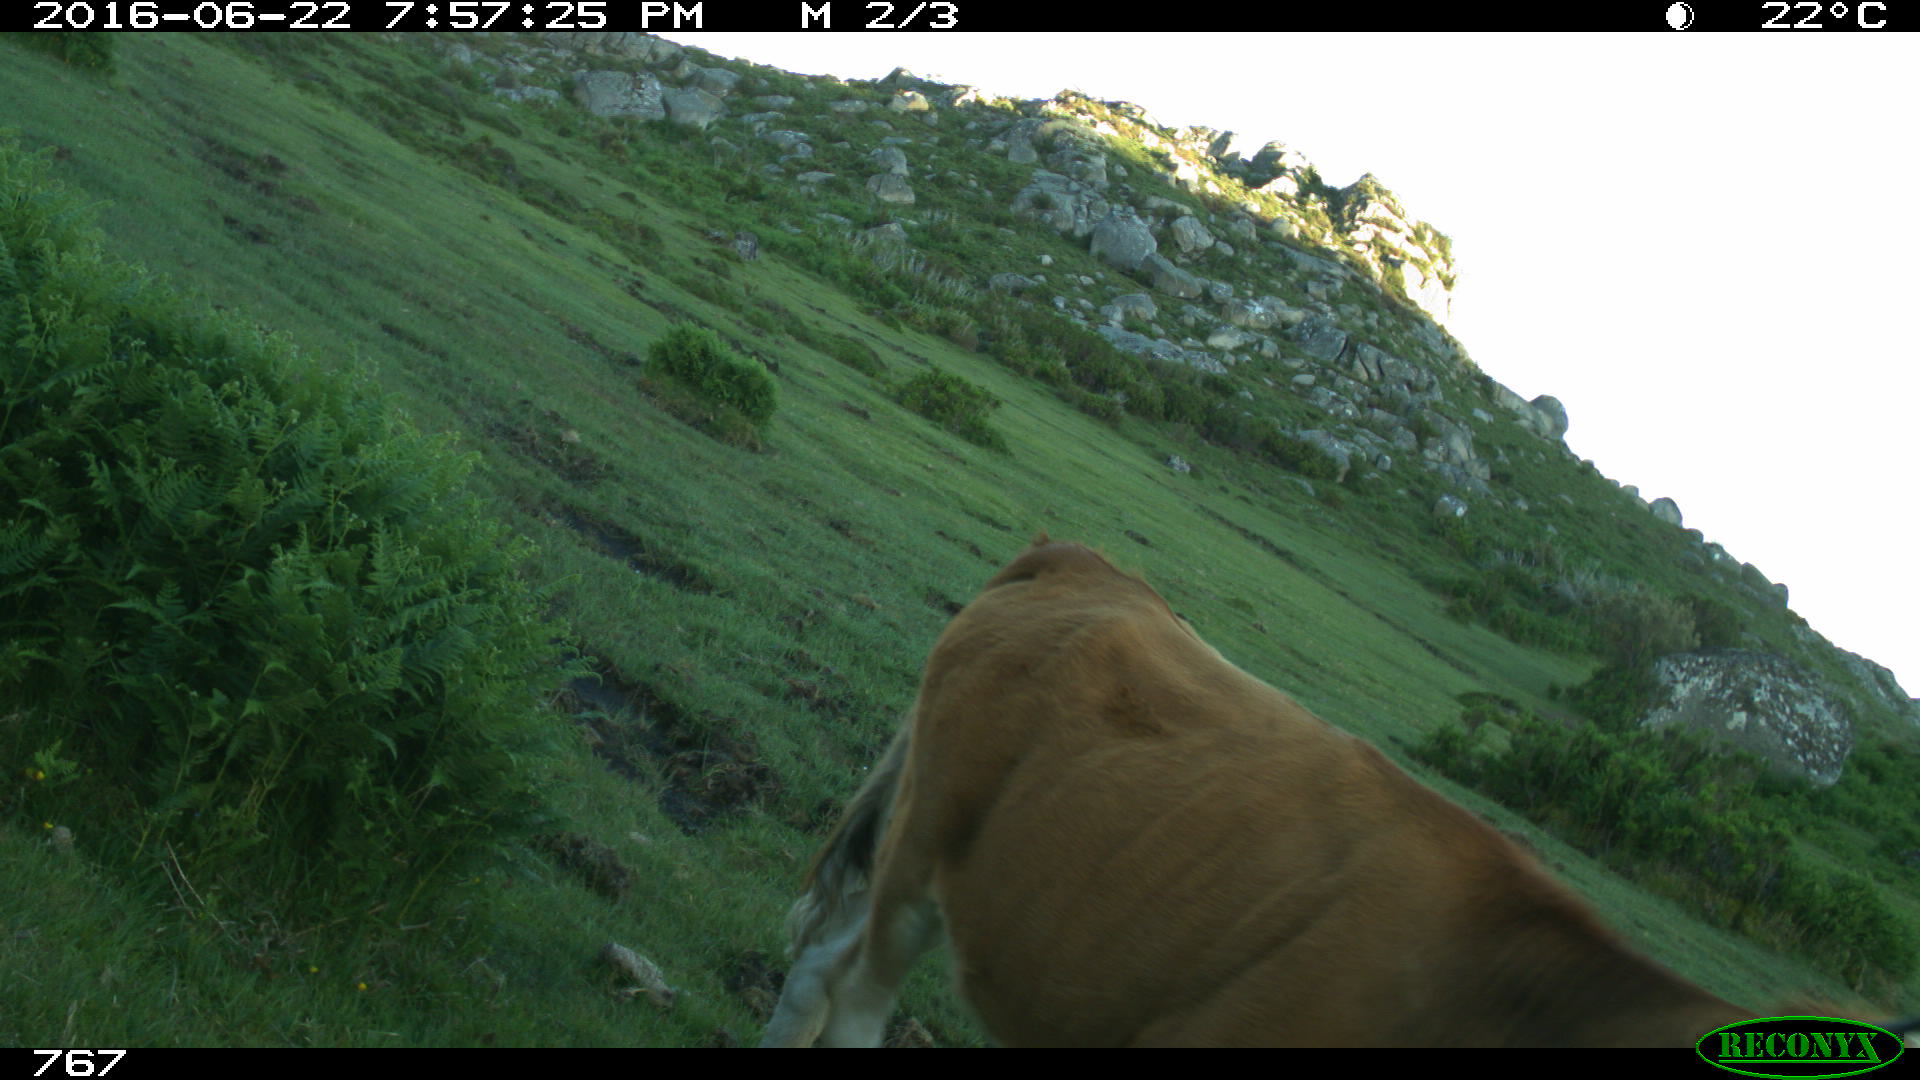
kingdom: Animalia
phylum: Chordata
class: Mammalia
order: Artiodactyla
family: Bovidae
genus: Bos
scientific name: Bos taurus
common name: Domesticated cattle
